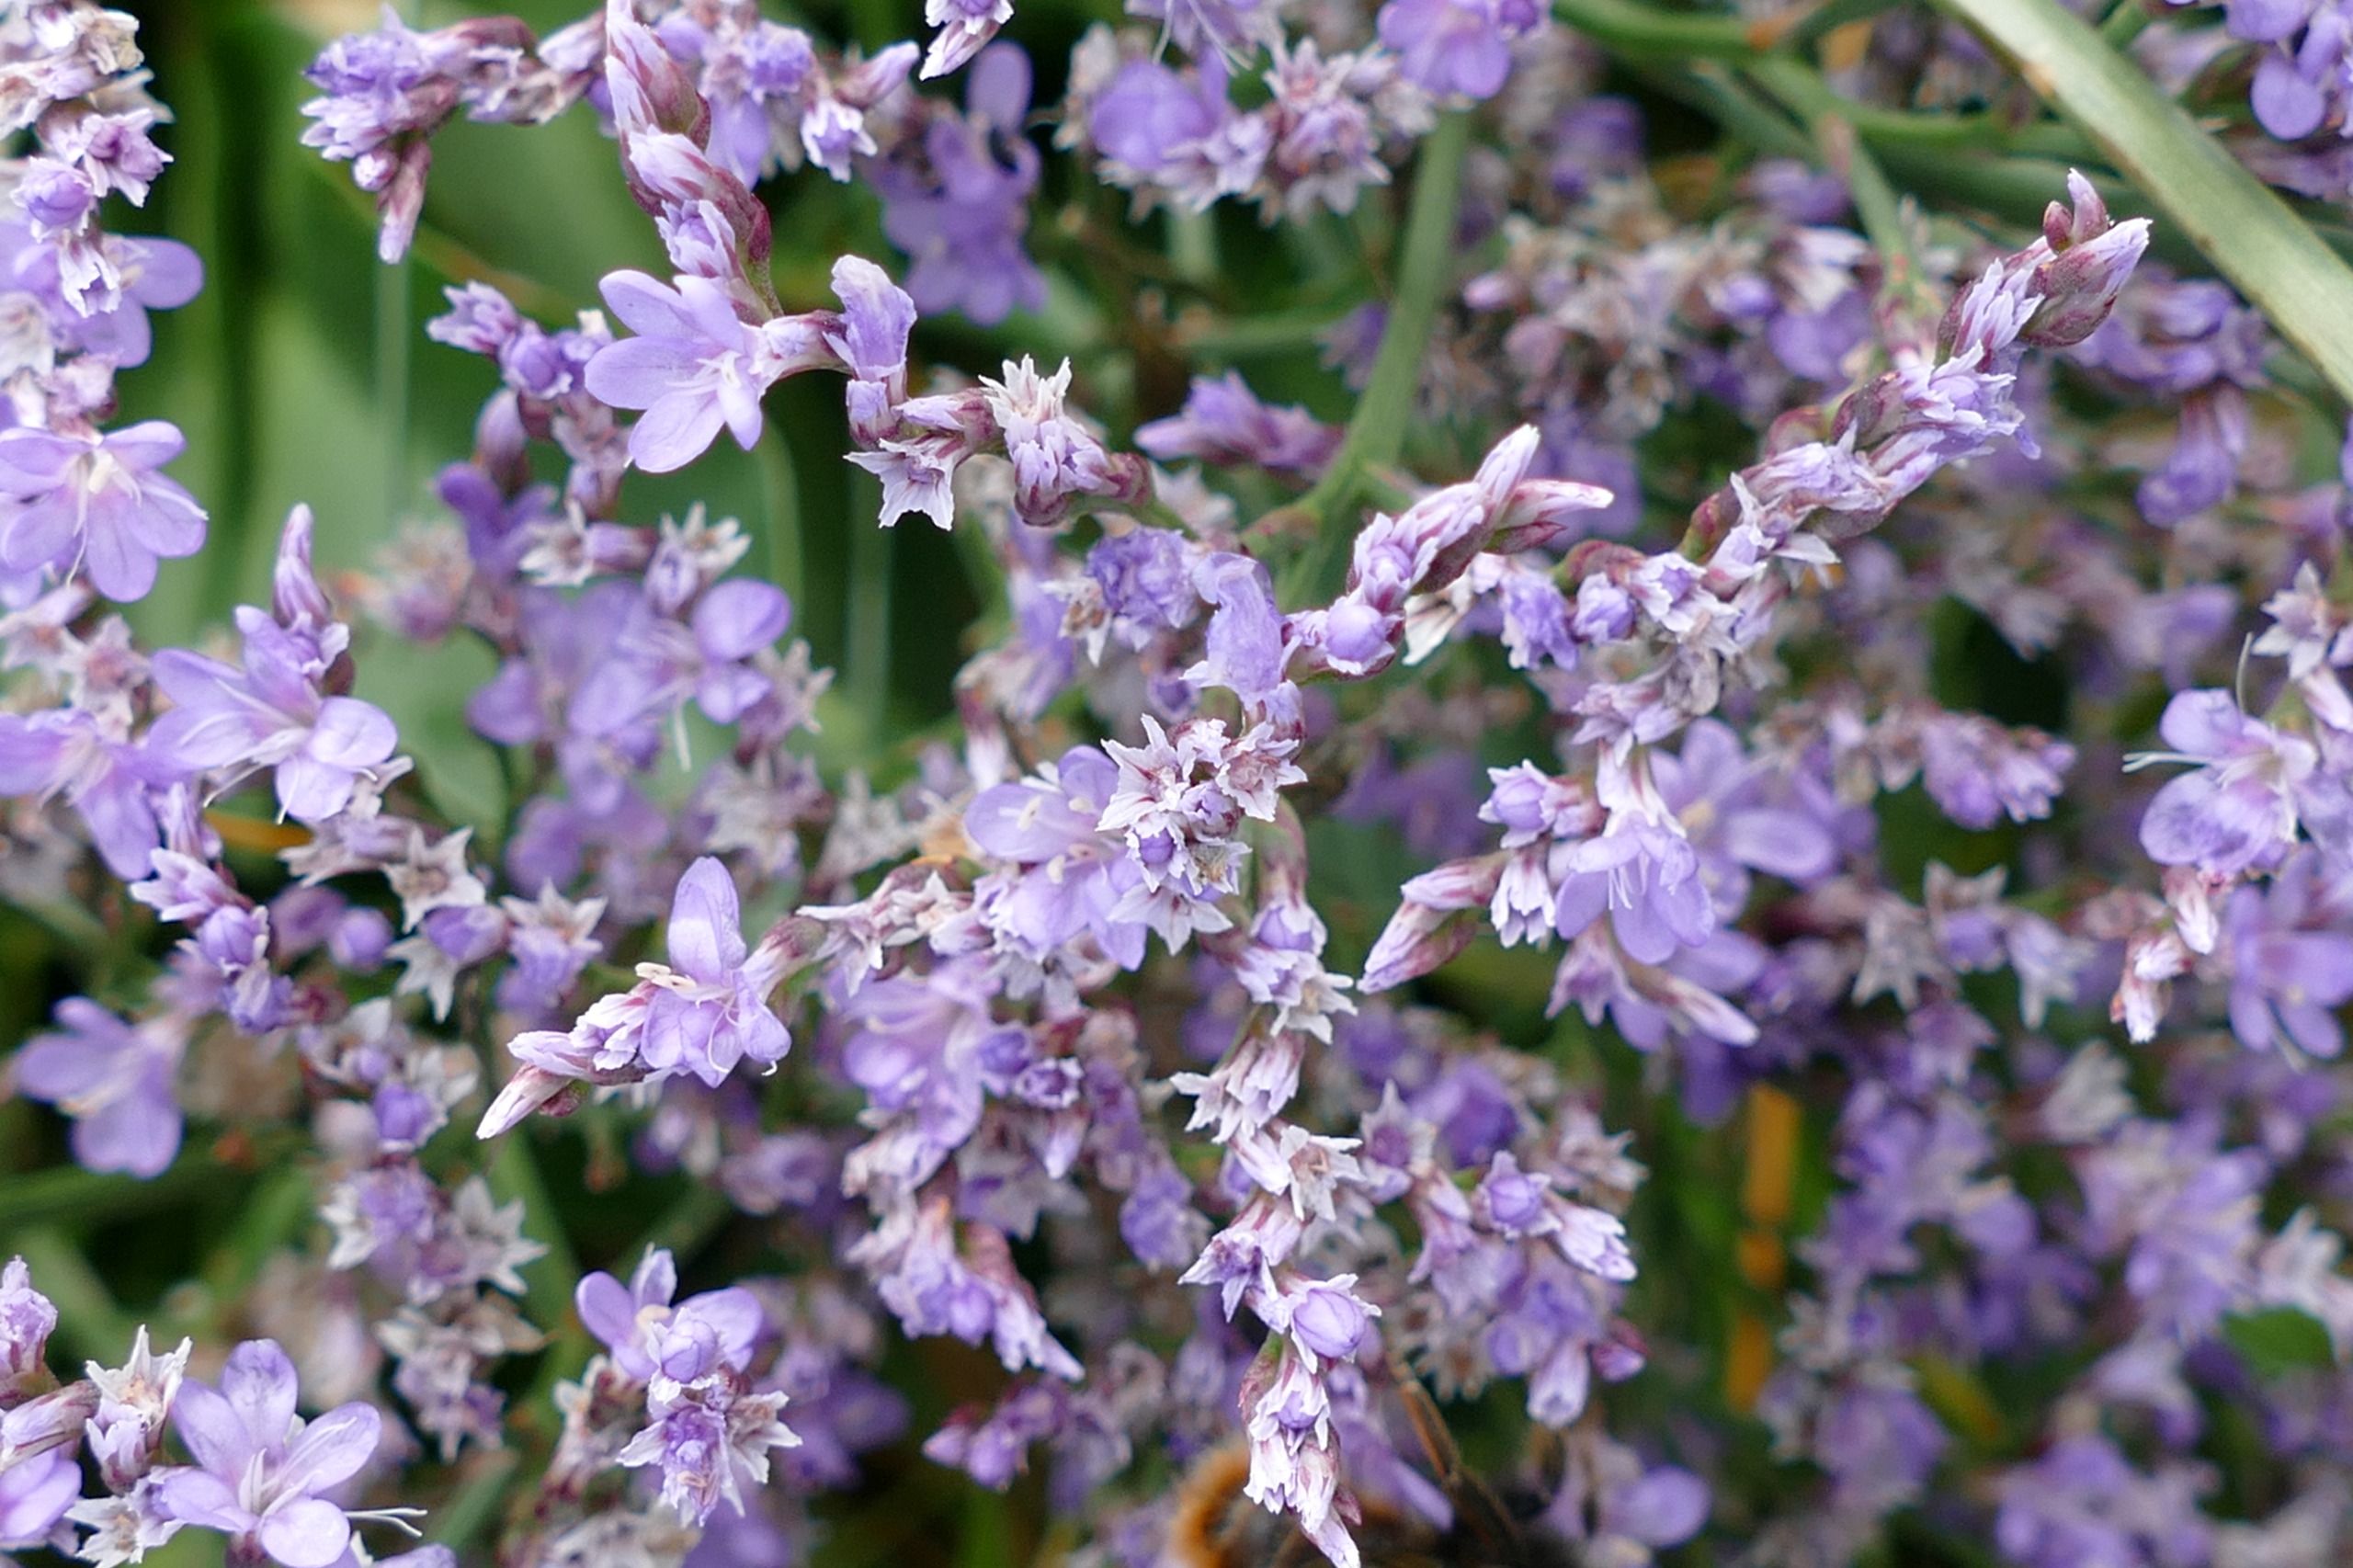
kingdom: Plantae
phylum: Tracheophyta
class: Magnoliopsida
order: Caryophyllales
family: Plumbaginaceae
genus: Limonium
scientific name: Limonium vulgare
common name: Tætblomstret hindebæger
